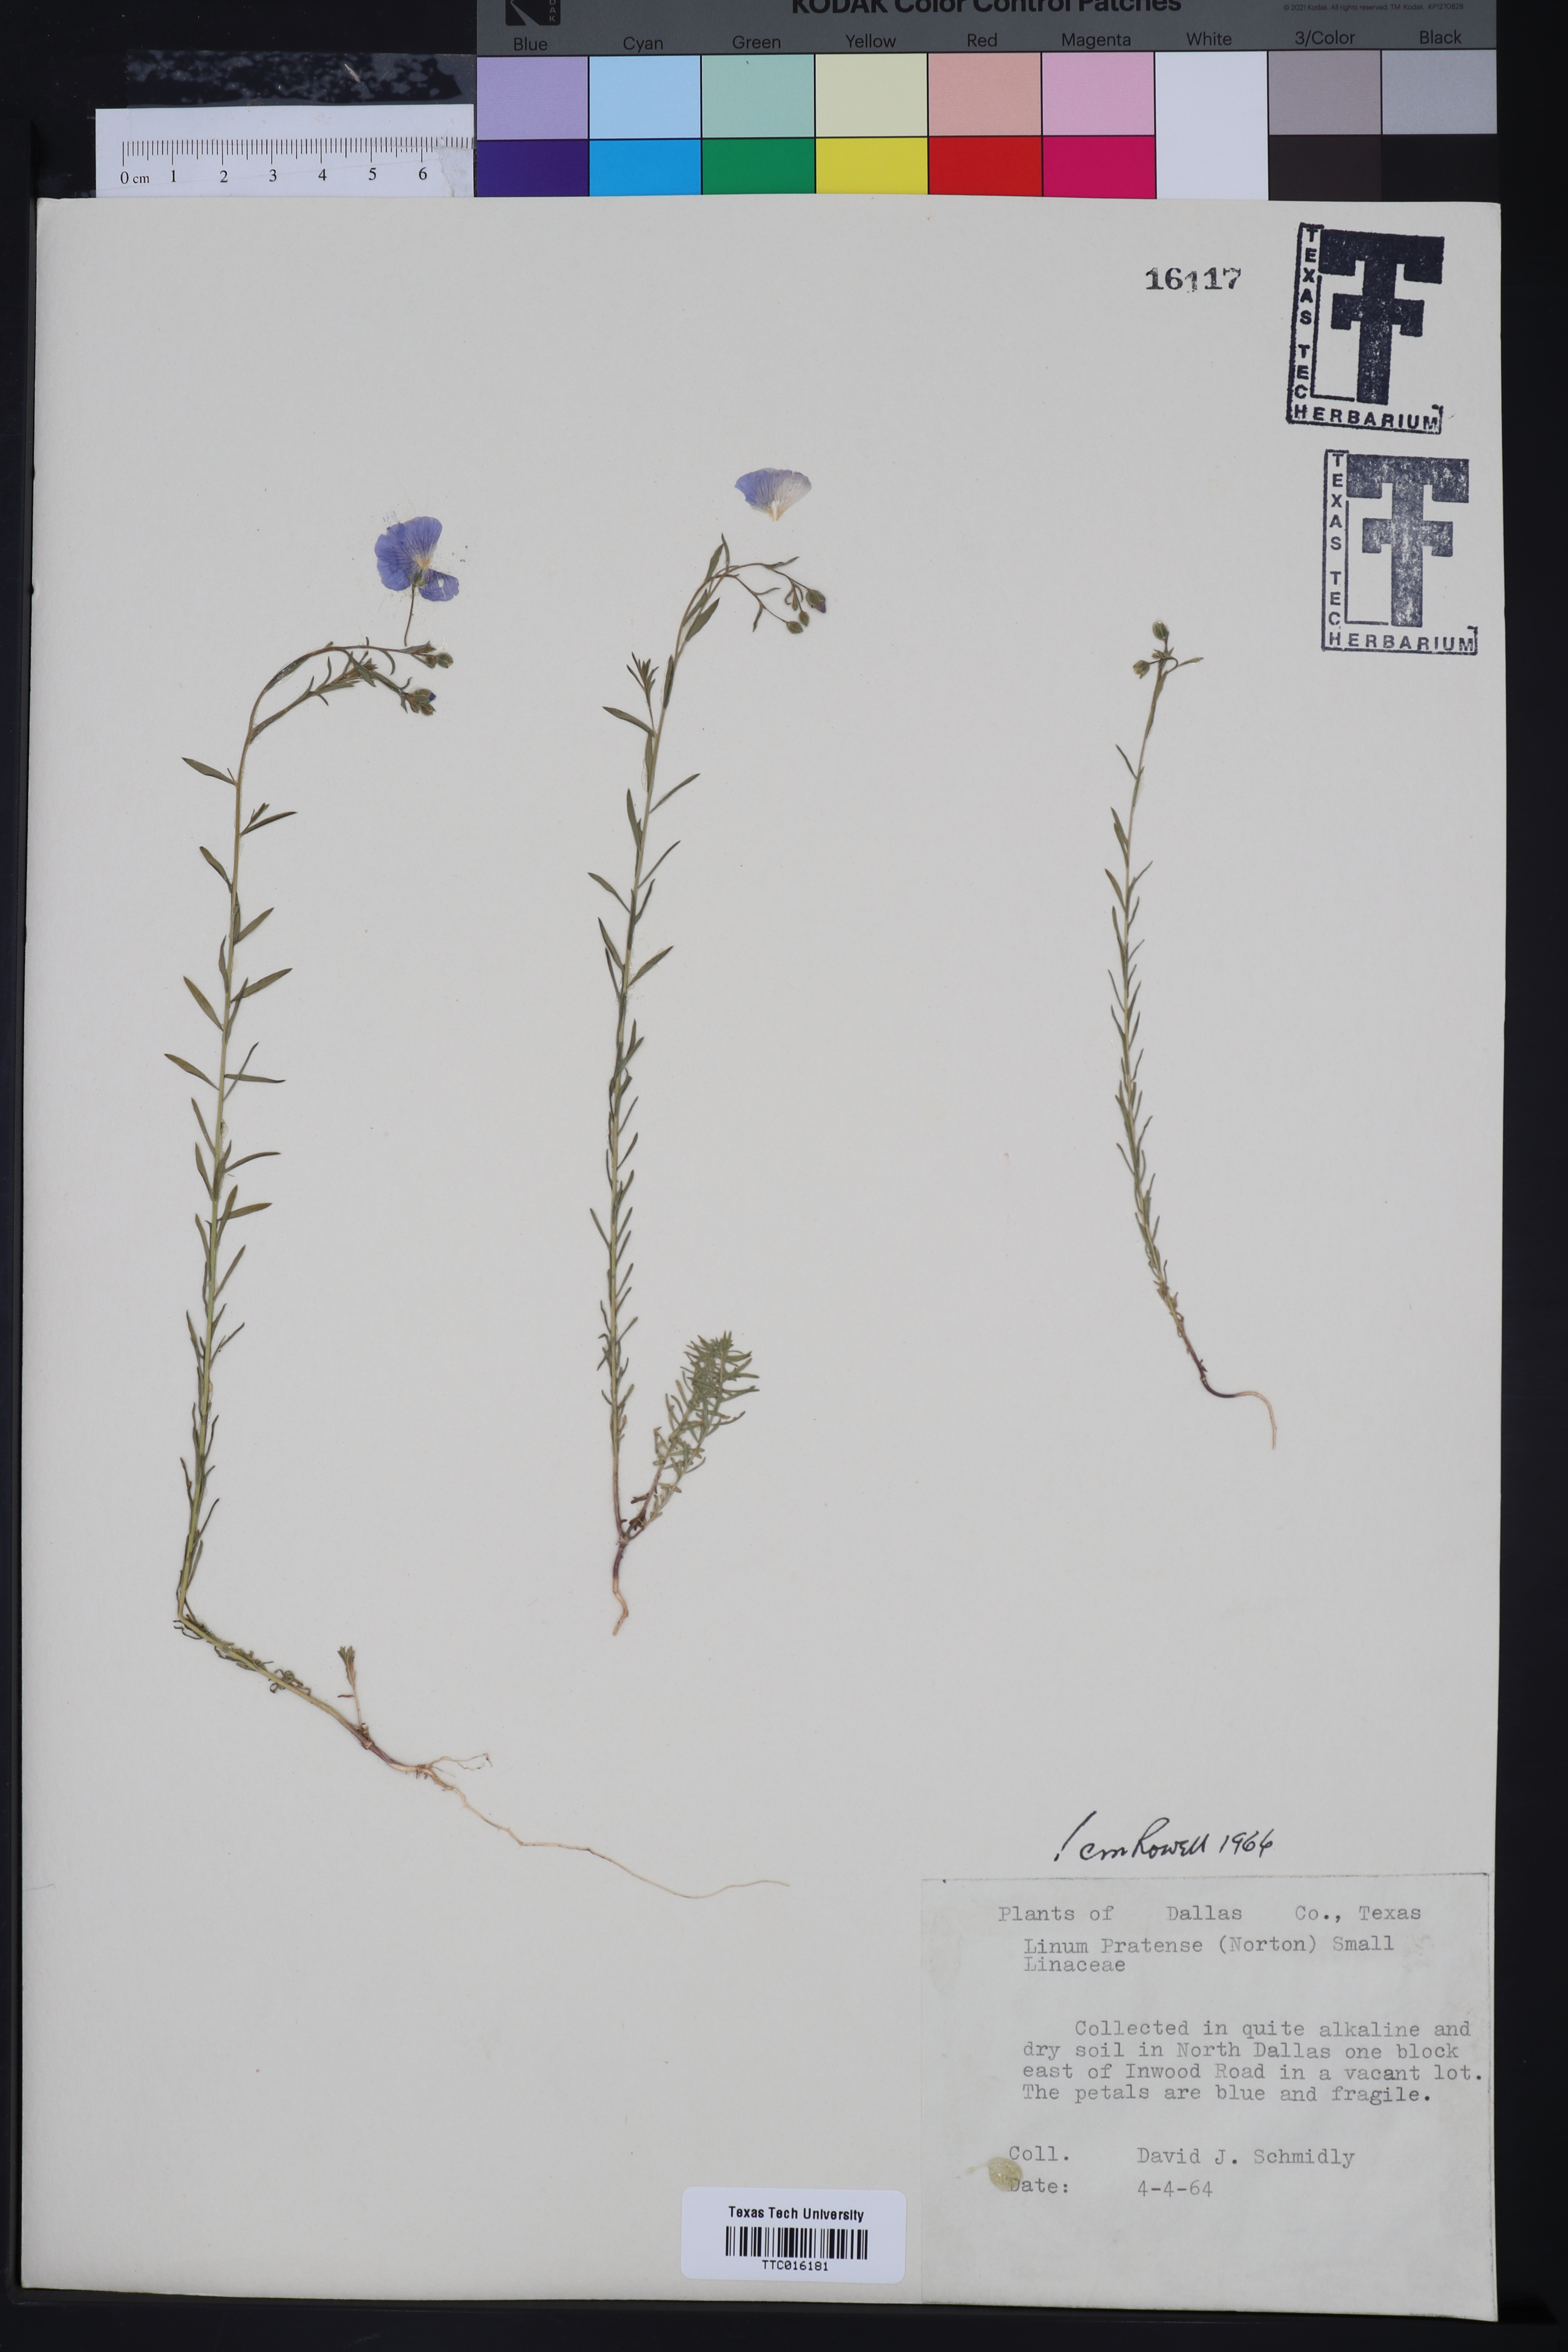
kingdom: Plantae
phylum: Tracheophyta
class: Magnoliopsida
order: Malpighiales
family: Linaceae
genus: Linum
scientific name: Linum pratense
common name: Norton's flax
